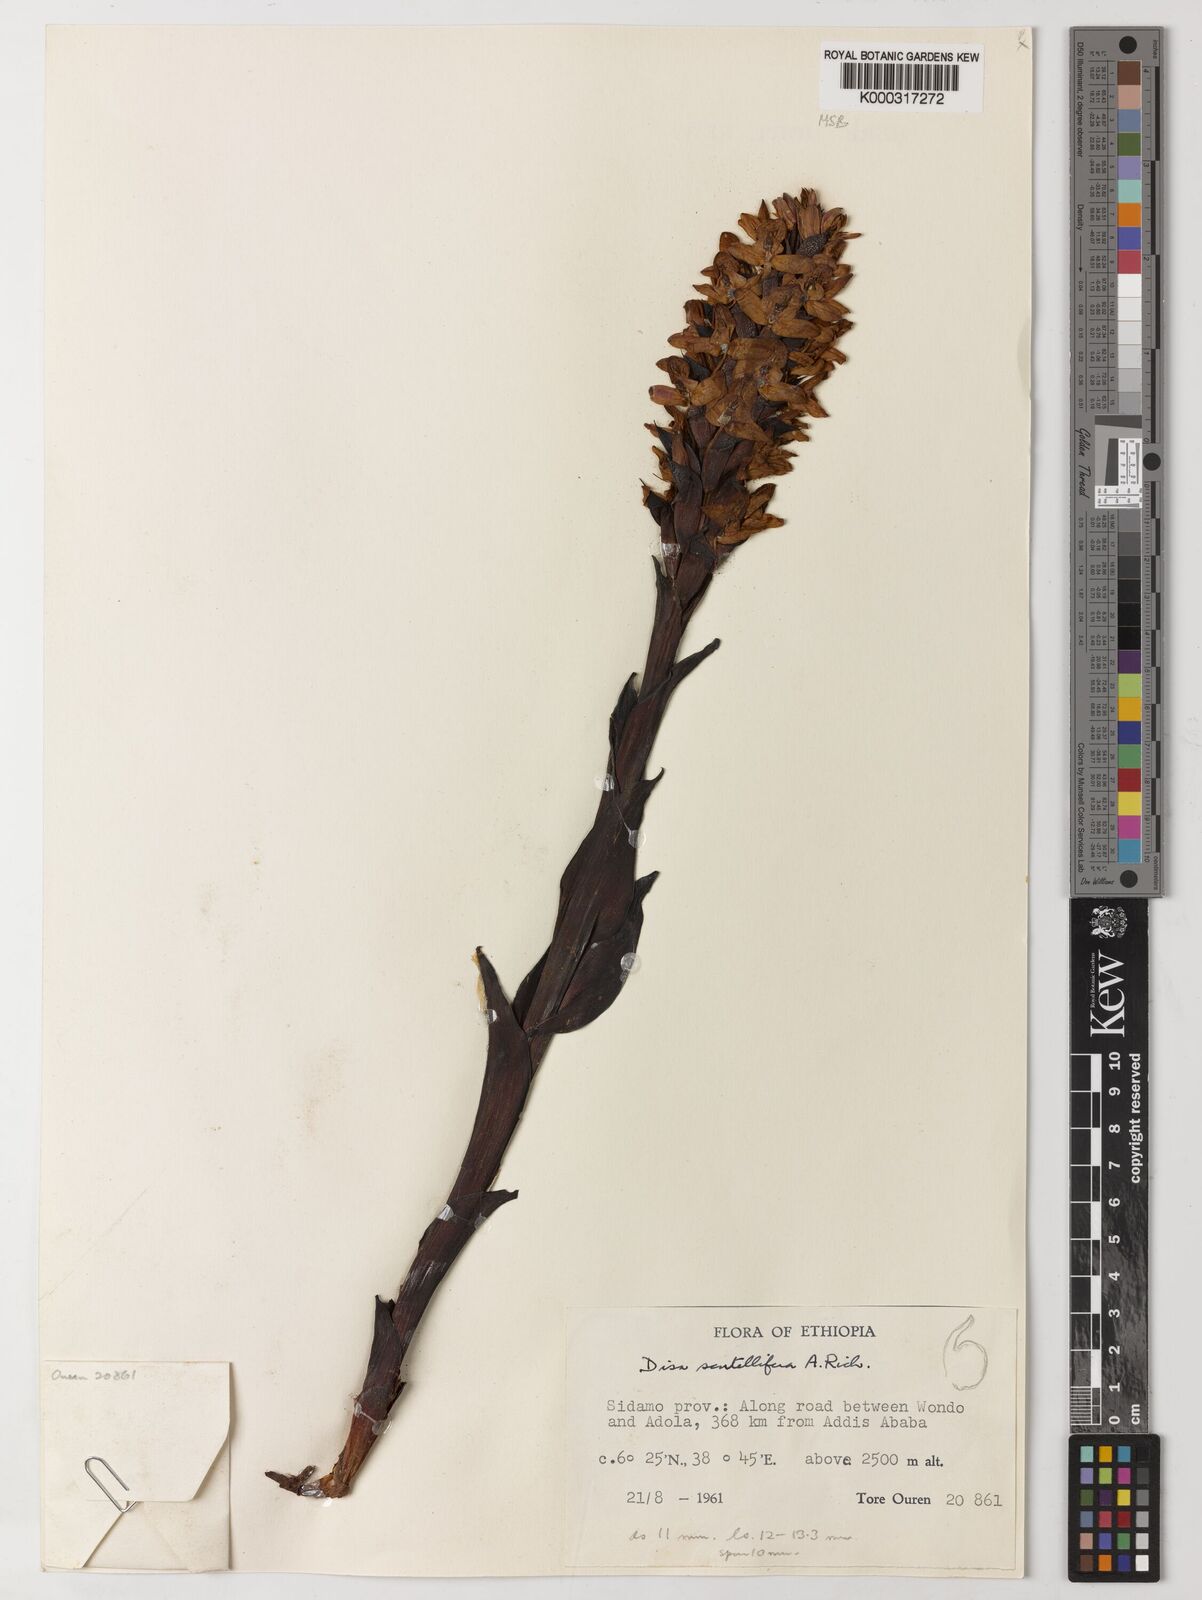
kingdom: Plantae
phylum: Tracheophyta
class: Liliopsida
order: Asparagales
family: Orchidaceae
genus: Disa
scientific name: Disa scutellifera
